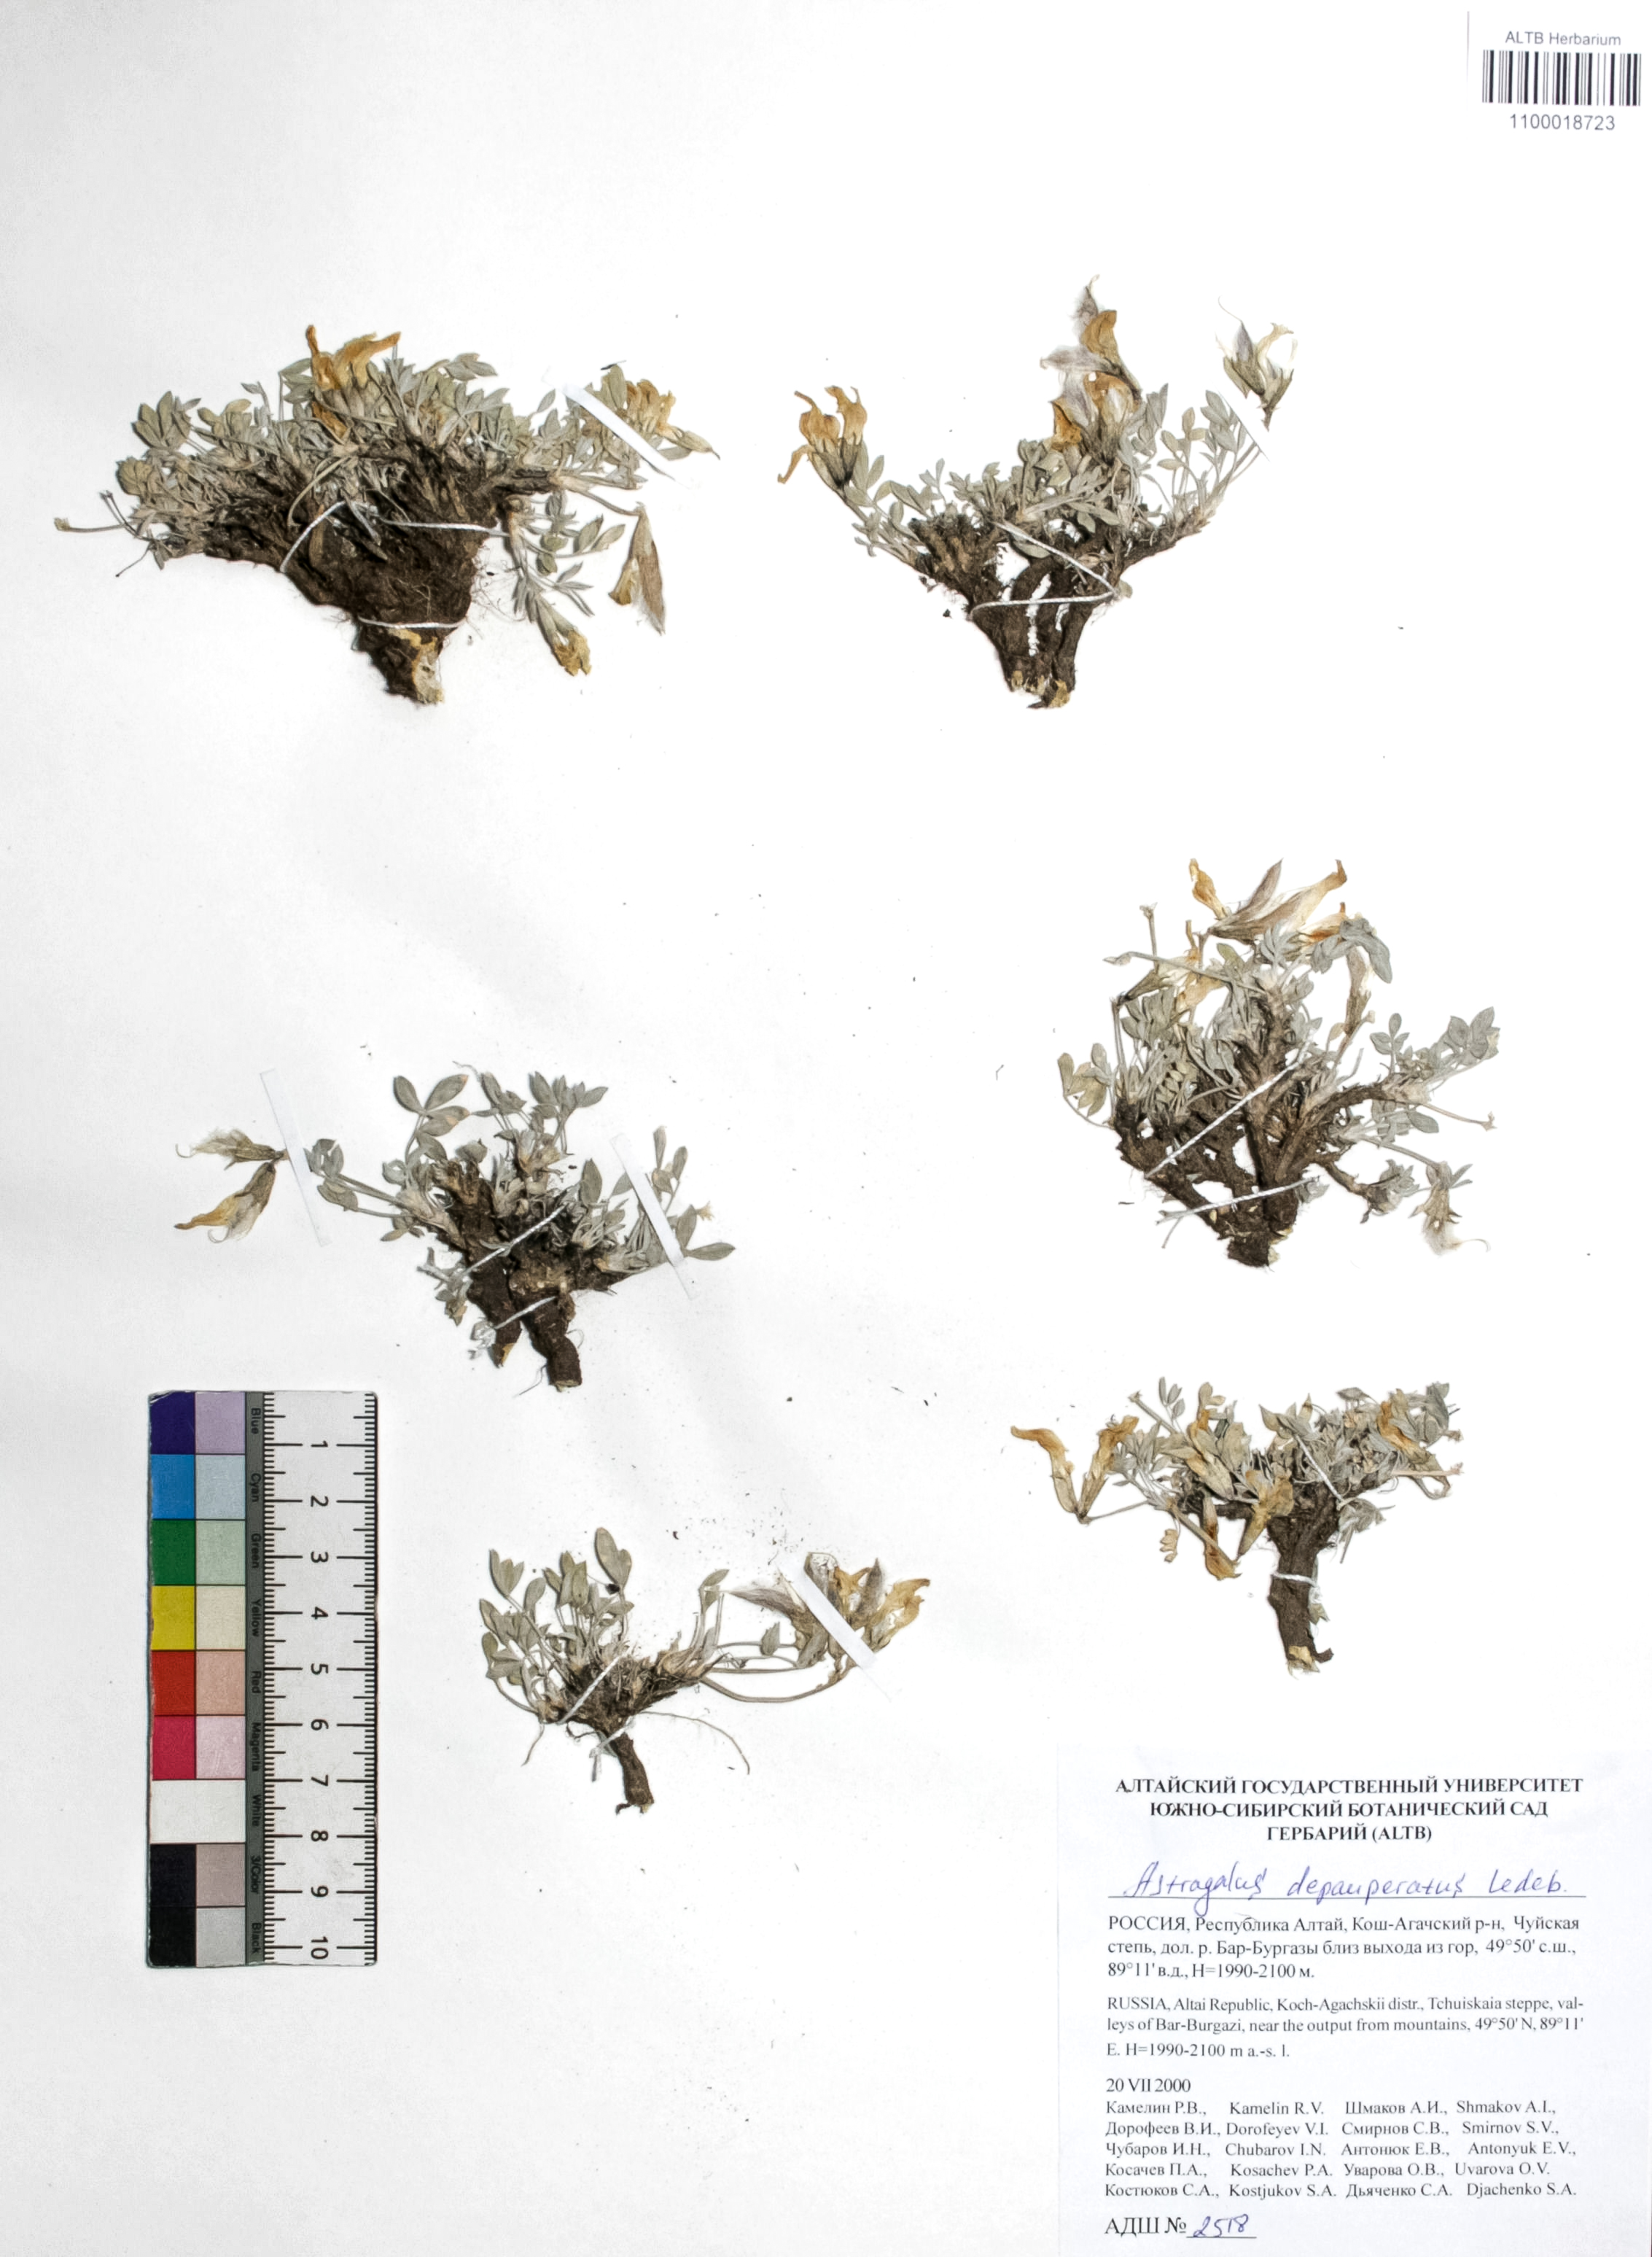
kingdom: Plantae
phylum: Tracheophyta
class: Magnoliopsida
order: Fabales
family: Fabaceae
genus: Astragalus
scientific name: Astragalus depauperatus
